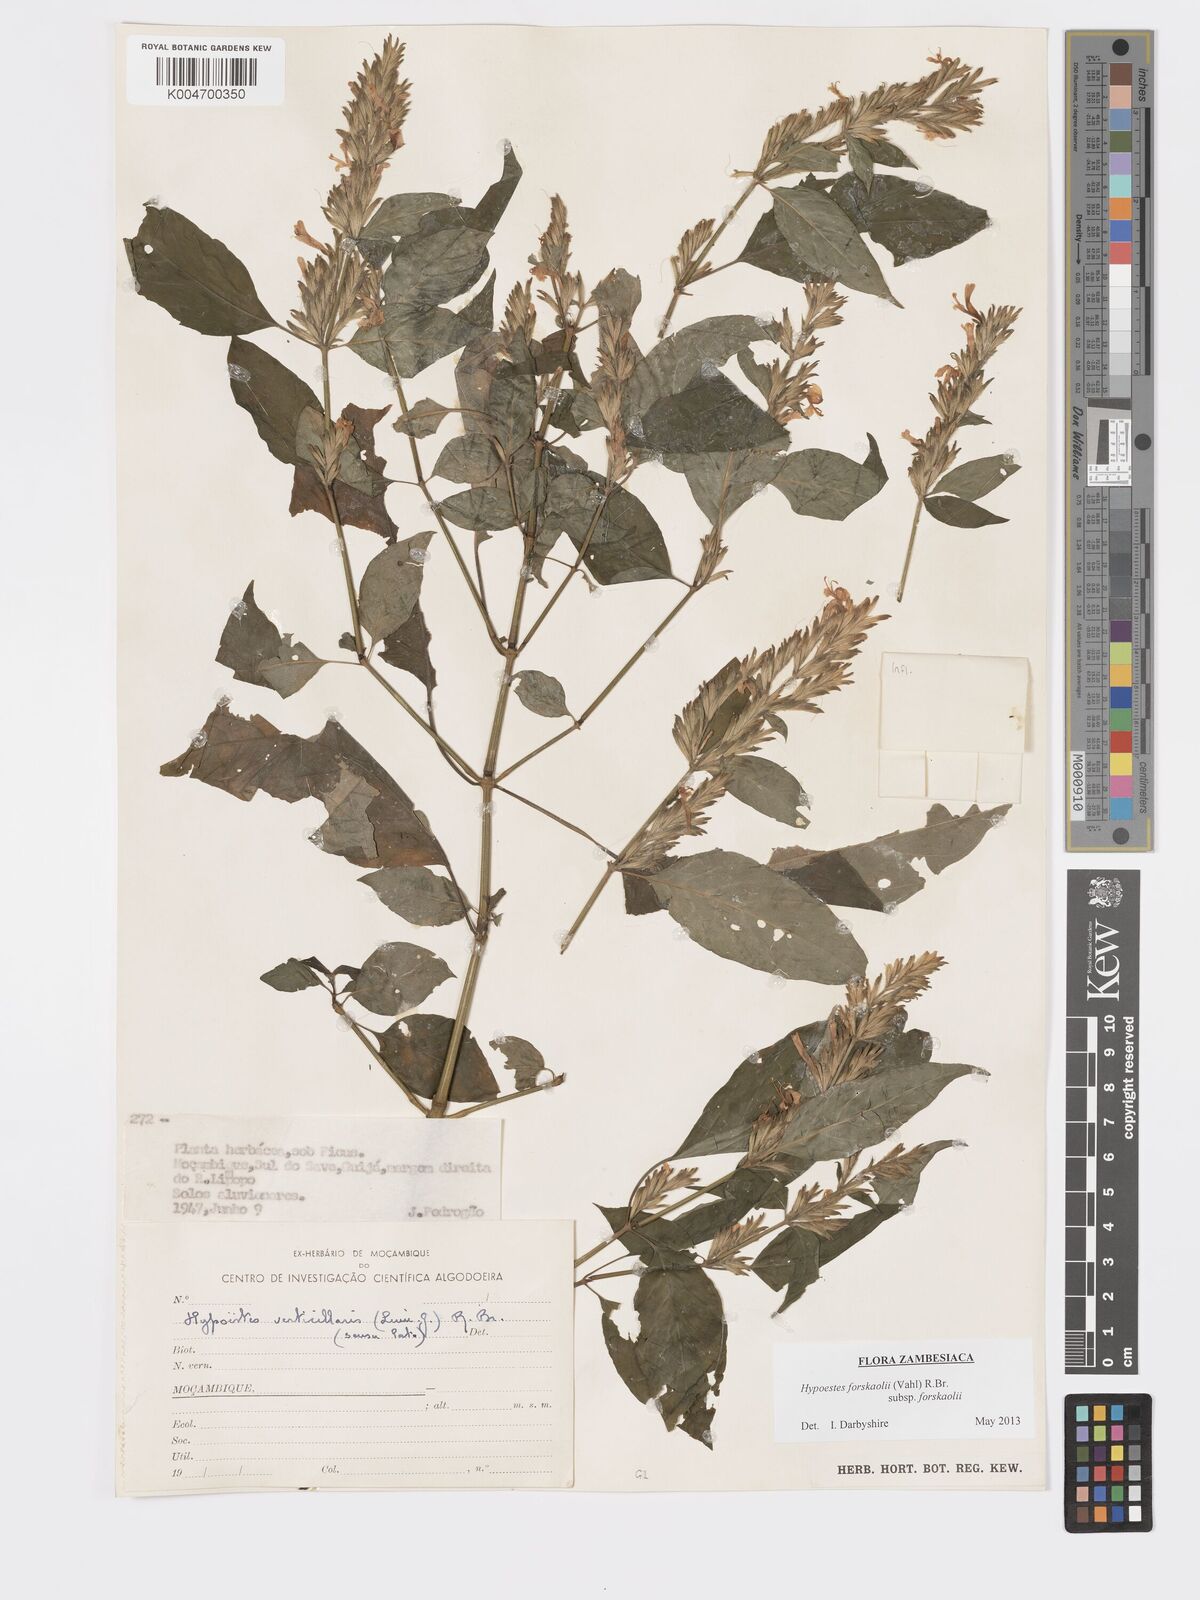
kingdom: Plantae
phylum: Tracheophyta
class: Magnoliopsida
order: Lamiales
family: Acanthaceae
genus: Hypoestes
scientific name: Hypoestes forskaolii
